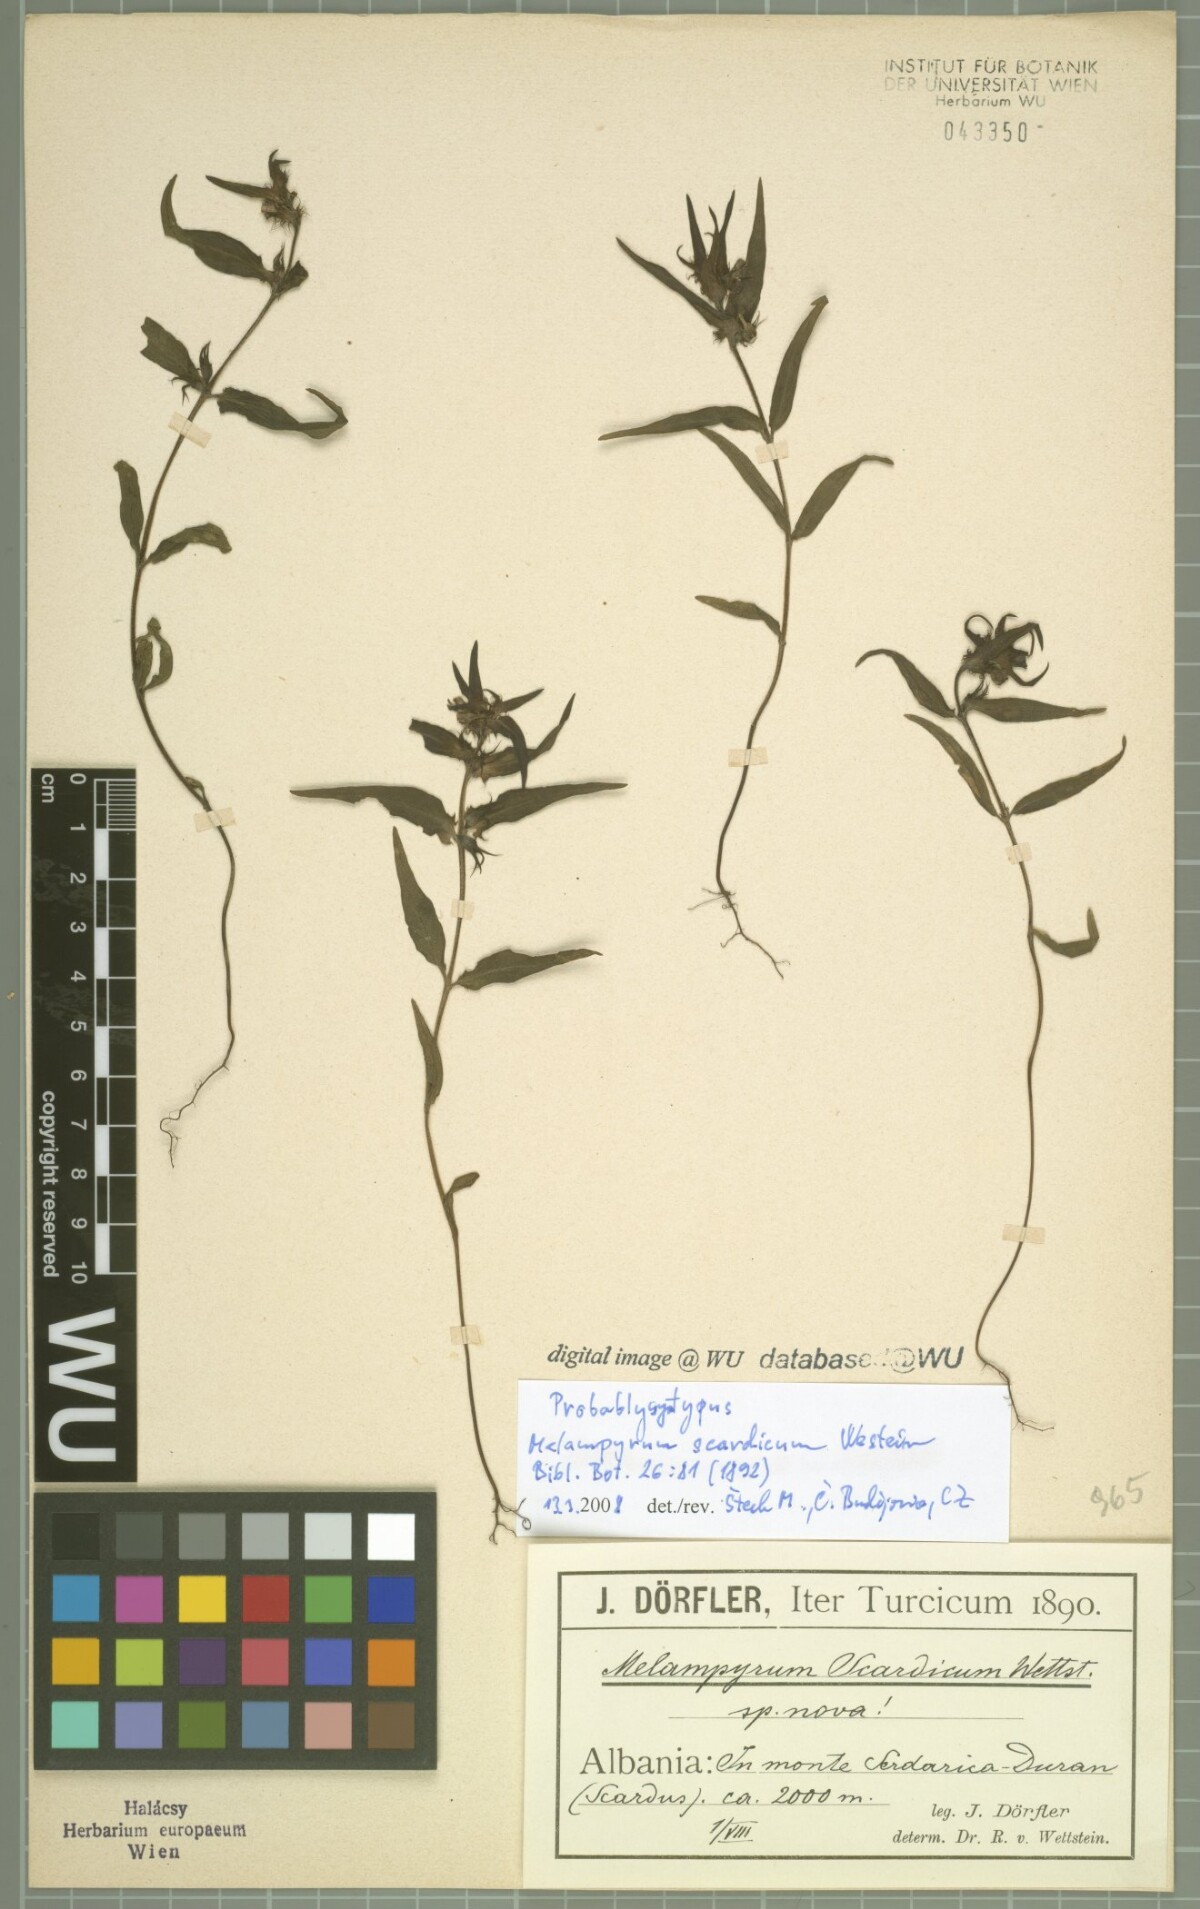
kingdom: Plantae
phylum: Tracheophyta
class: Magnoliopsida
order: Lamiales
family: Orobanchaceae
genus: Melampyrum
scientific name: Melampyrum scardicum
